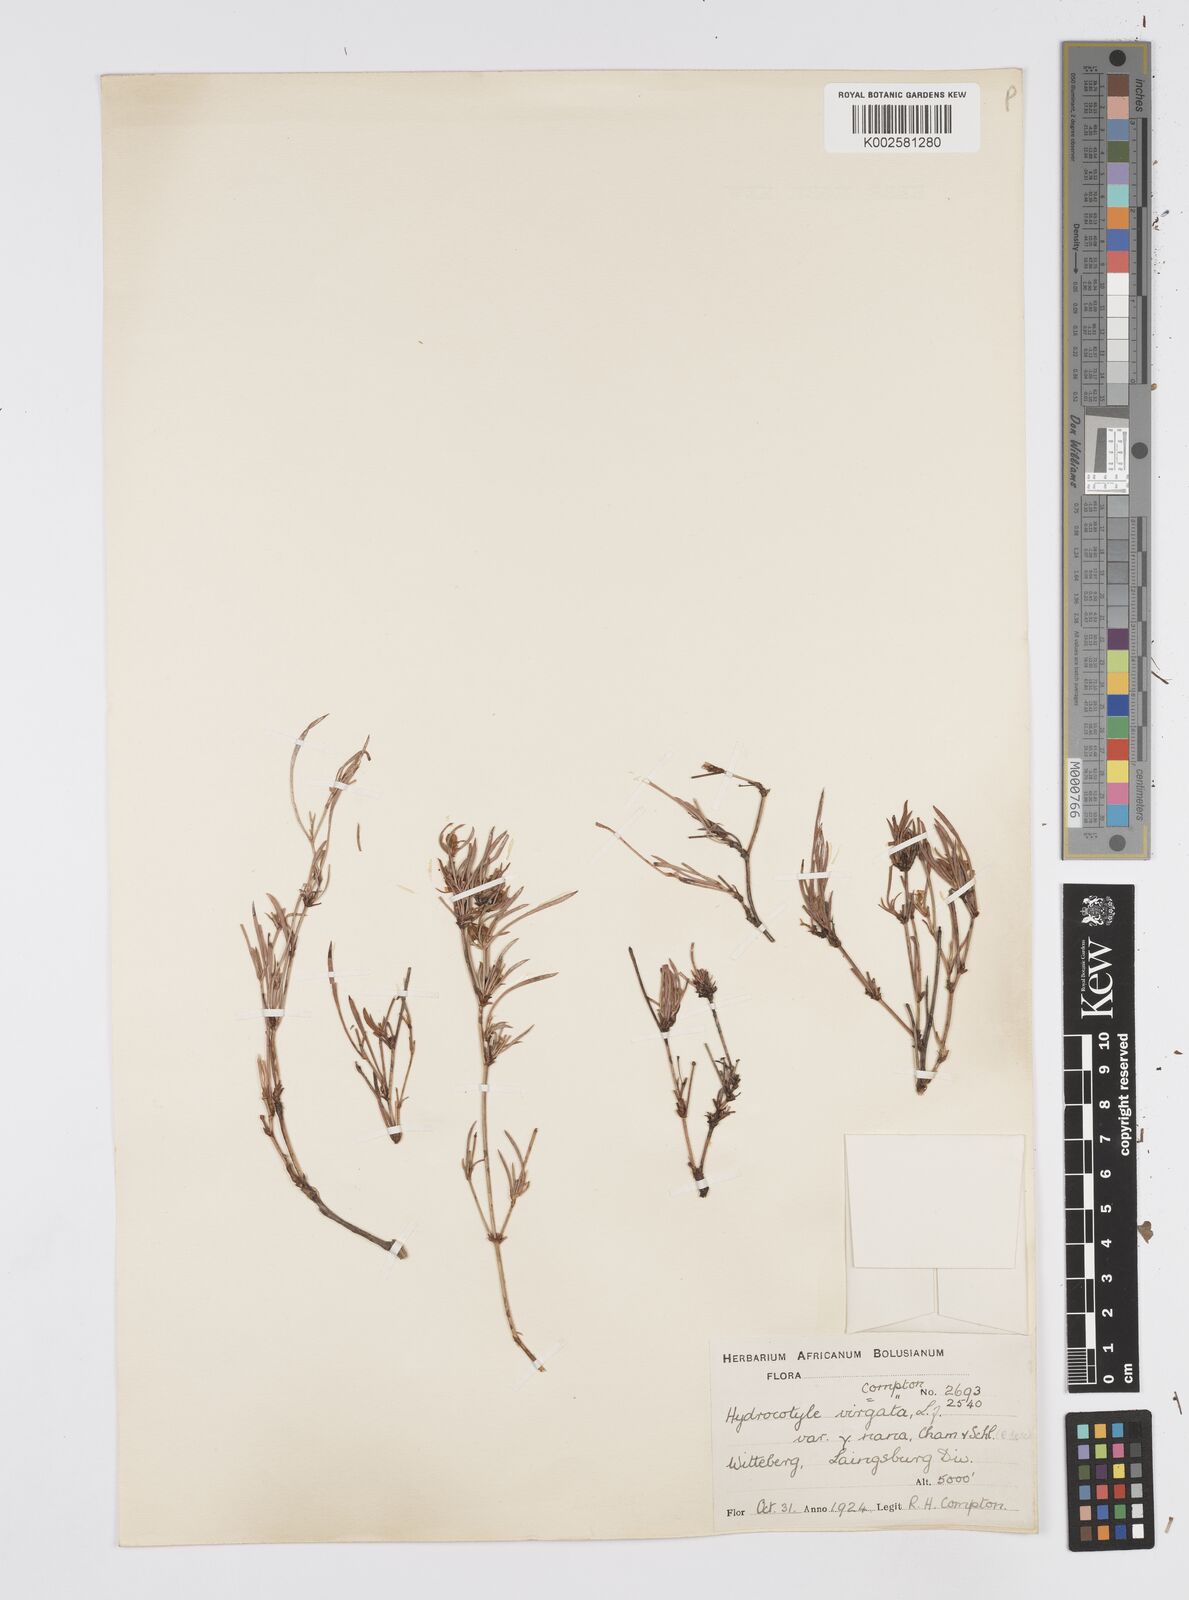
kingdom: Plantae
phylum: Tracheophyta
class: Magnoliopsida
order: Apiales
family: Apiaceae
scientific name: Apiaceae
